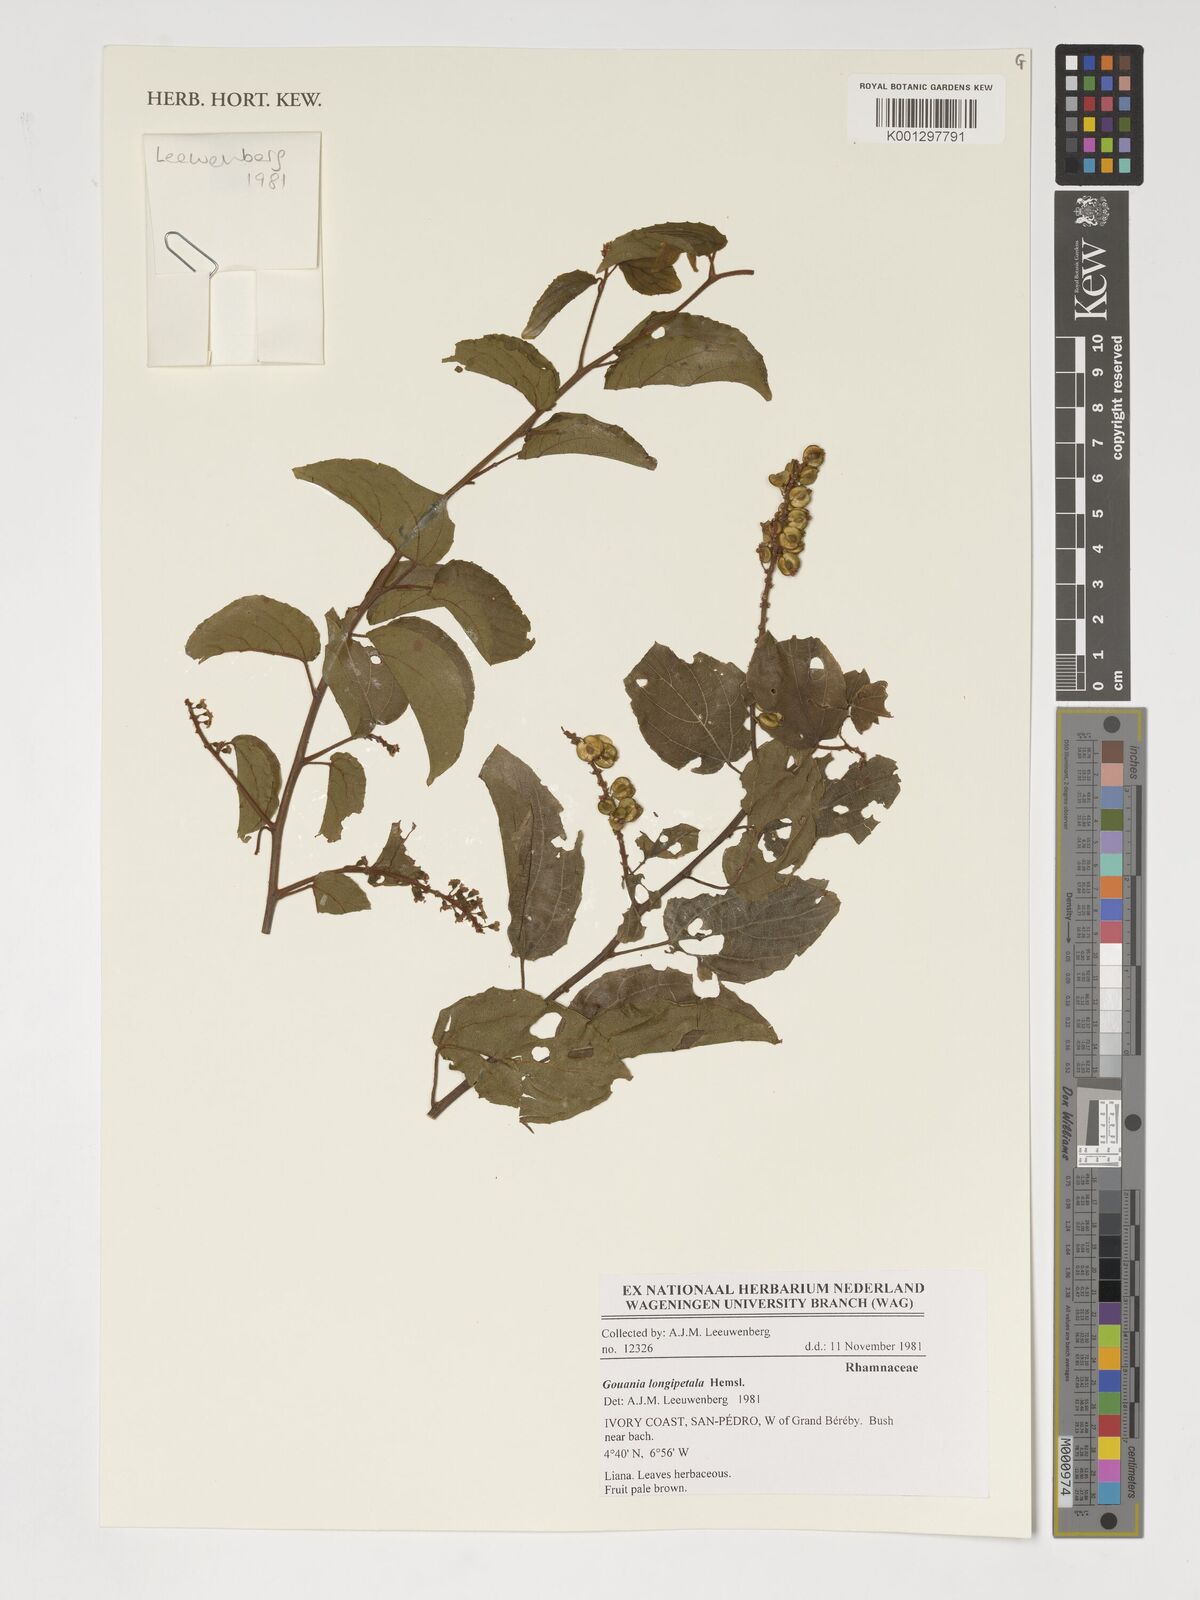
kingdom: Plantae
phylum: Tracheophyta
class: Magnoliopsida
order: Rosales
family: Rhamnaceae
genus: Gouania
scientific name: Gouania longipetala
